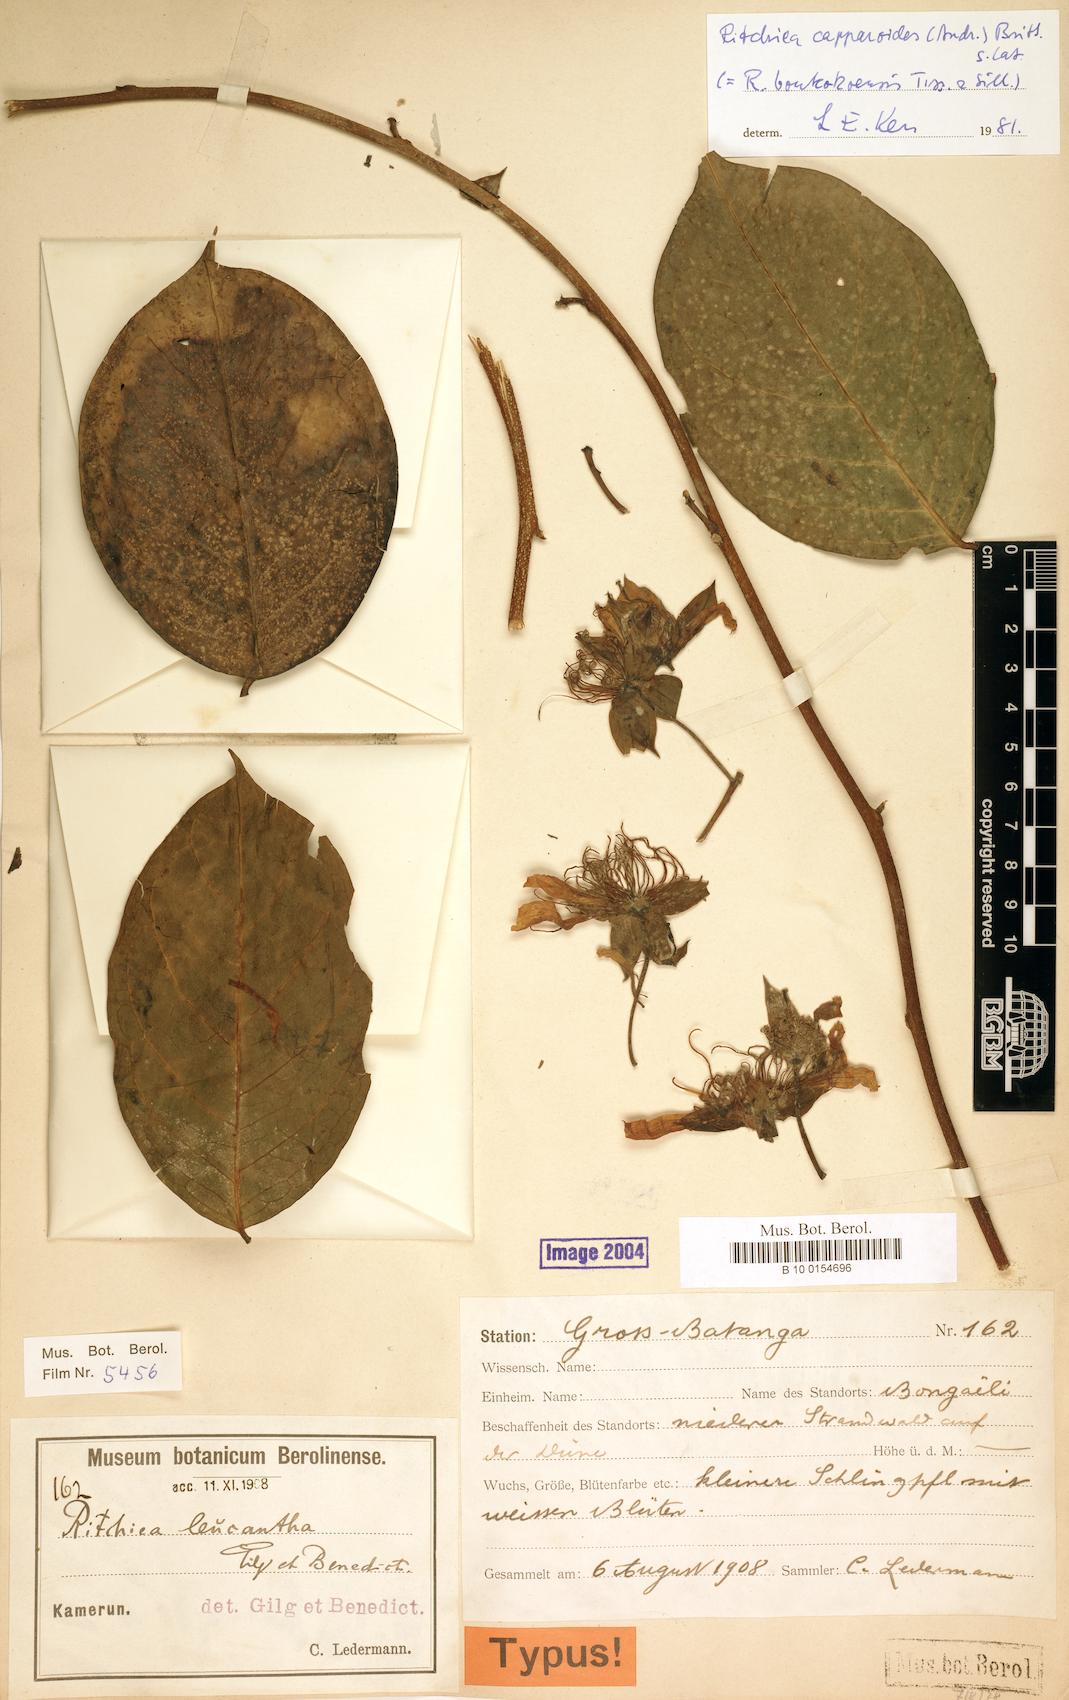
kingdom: Plantae
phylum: Tracheophyta
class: Magnoliopsida
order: Brassicales
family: Capparaceae
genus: Ritchiea
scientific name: Ritchiea capparoides
